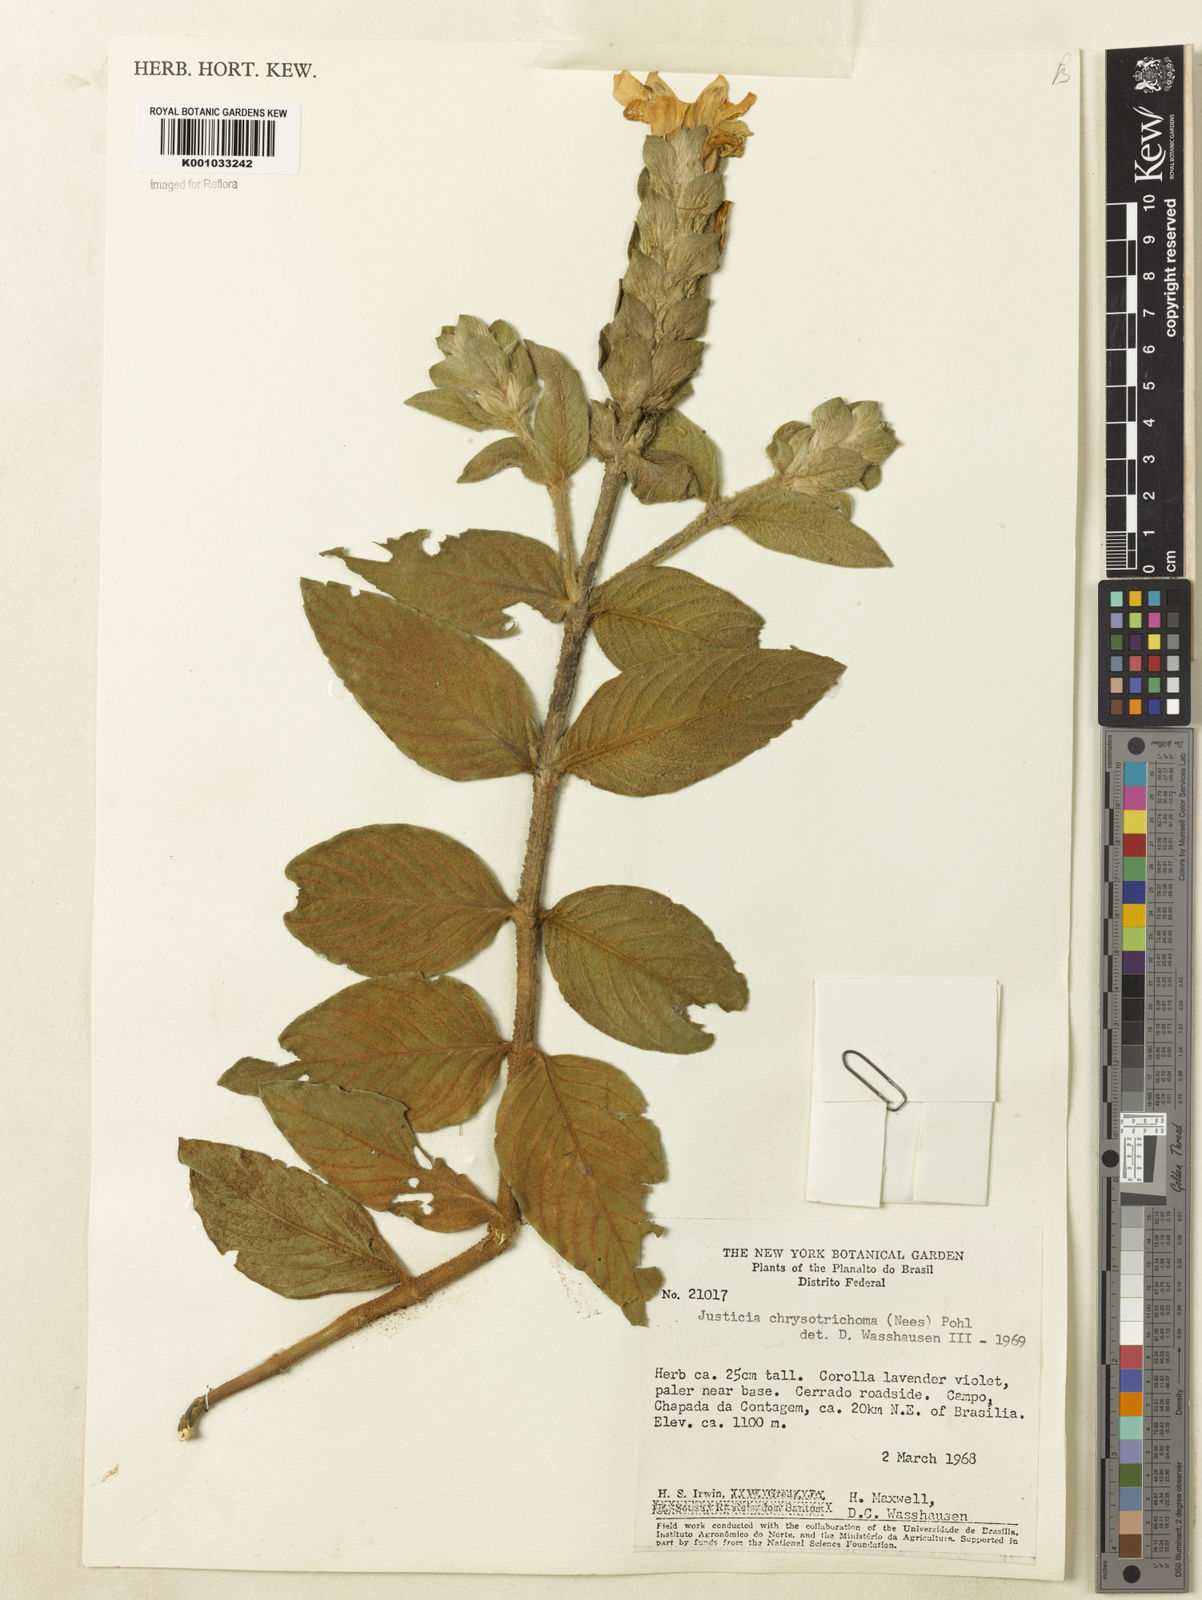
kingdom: Plantae
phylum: Tracheophyta
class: Magnoliopsida
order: Lamiales
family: Acanthaceae
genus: Justicia
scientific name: Justicia chrysotrichoma
